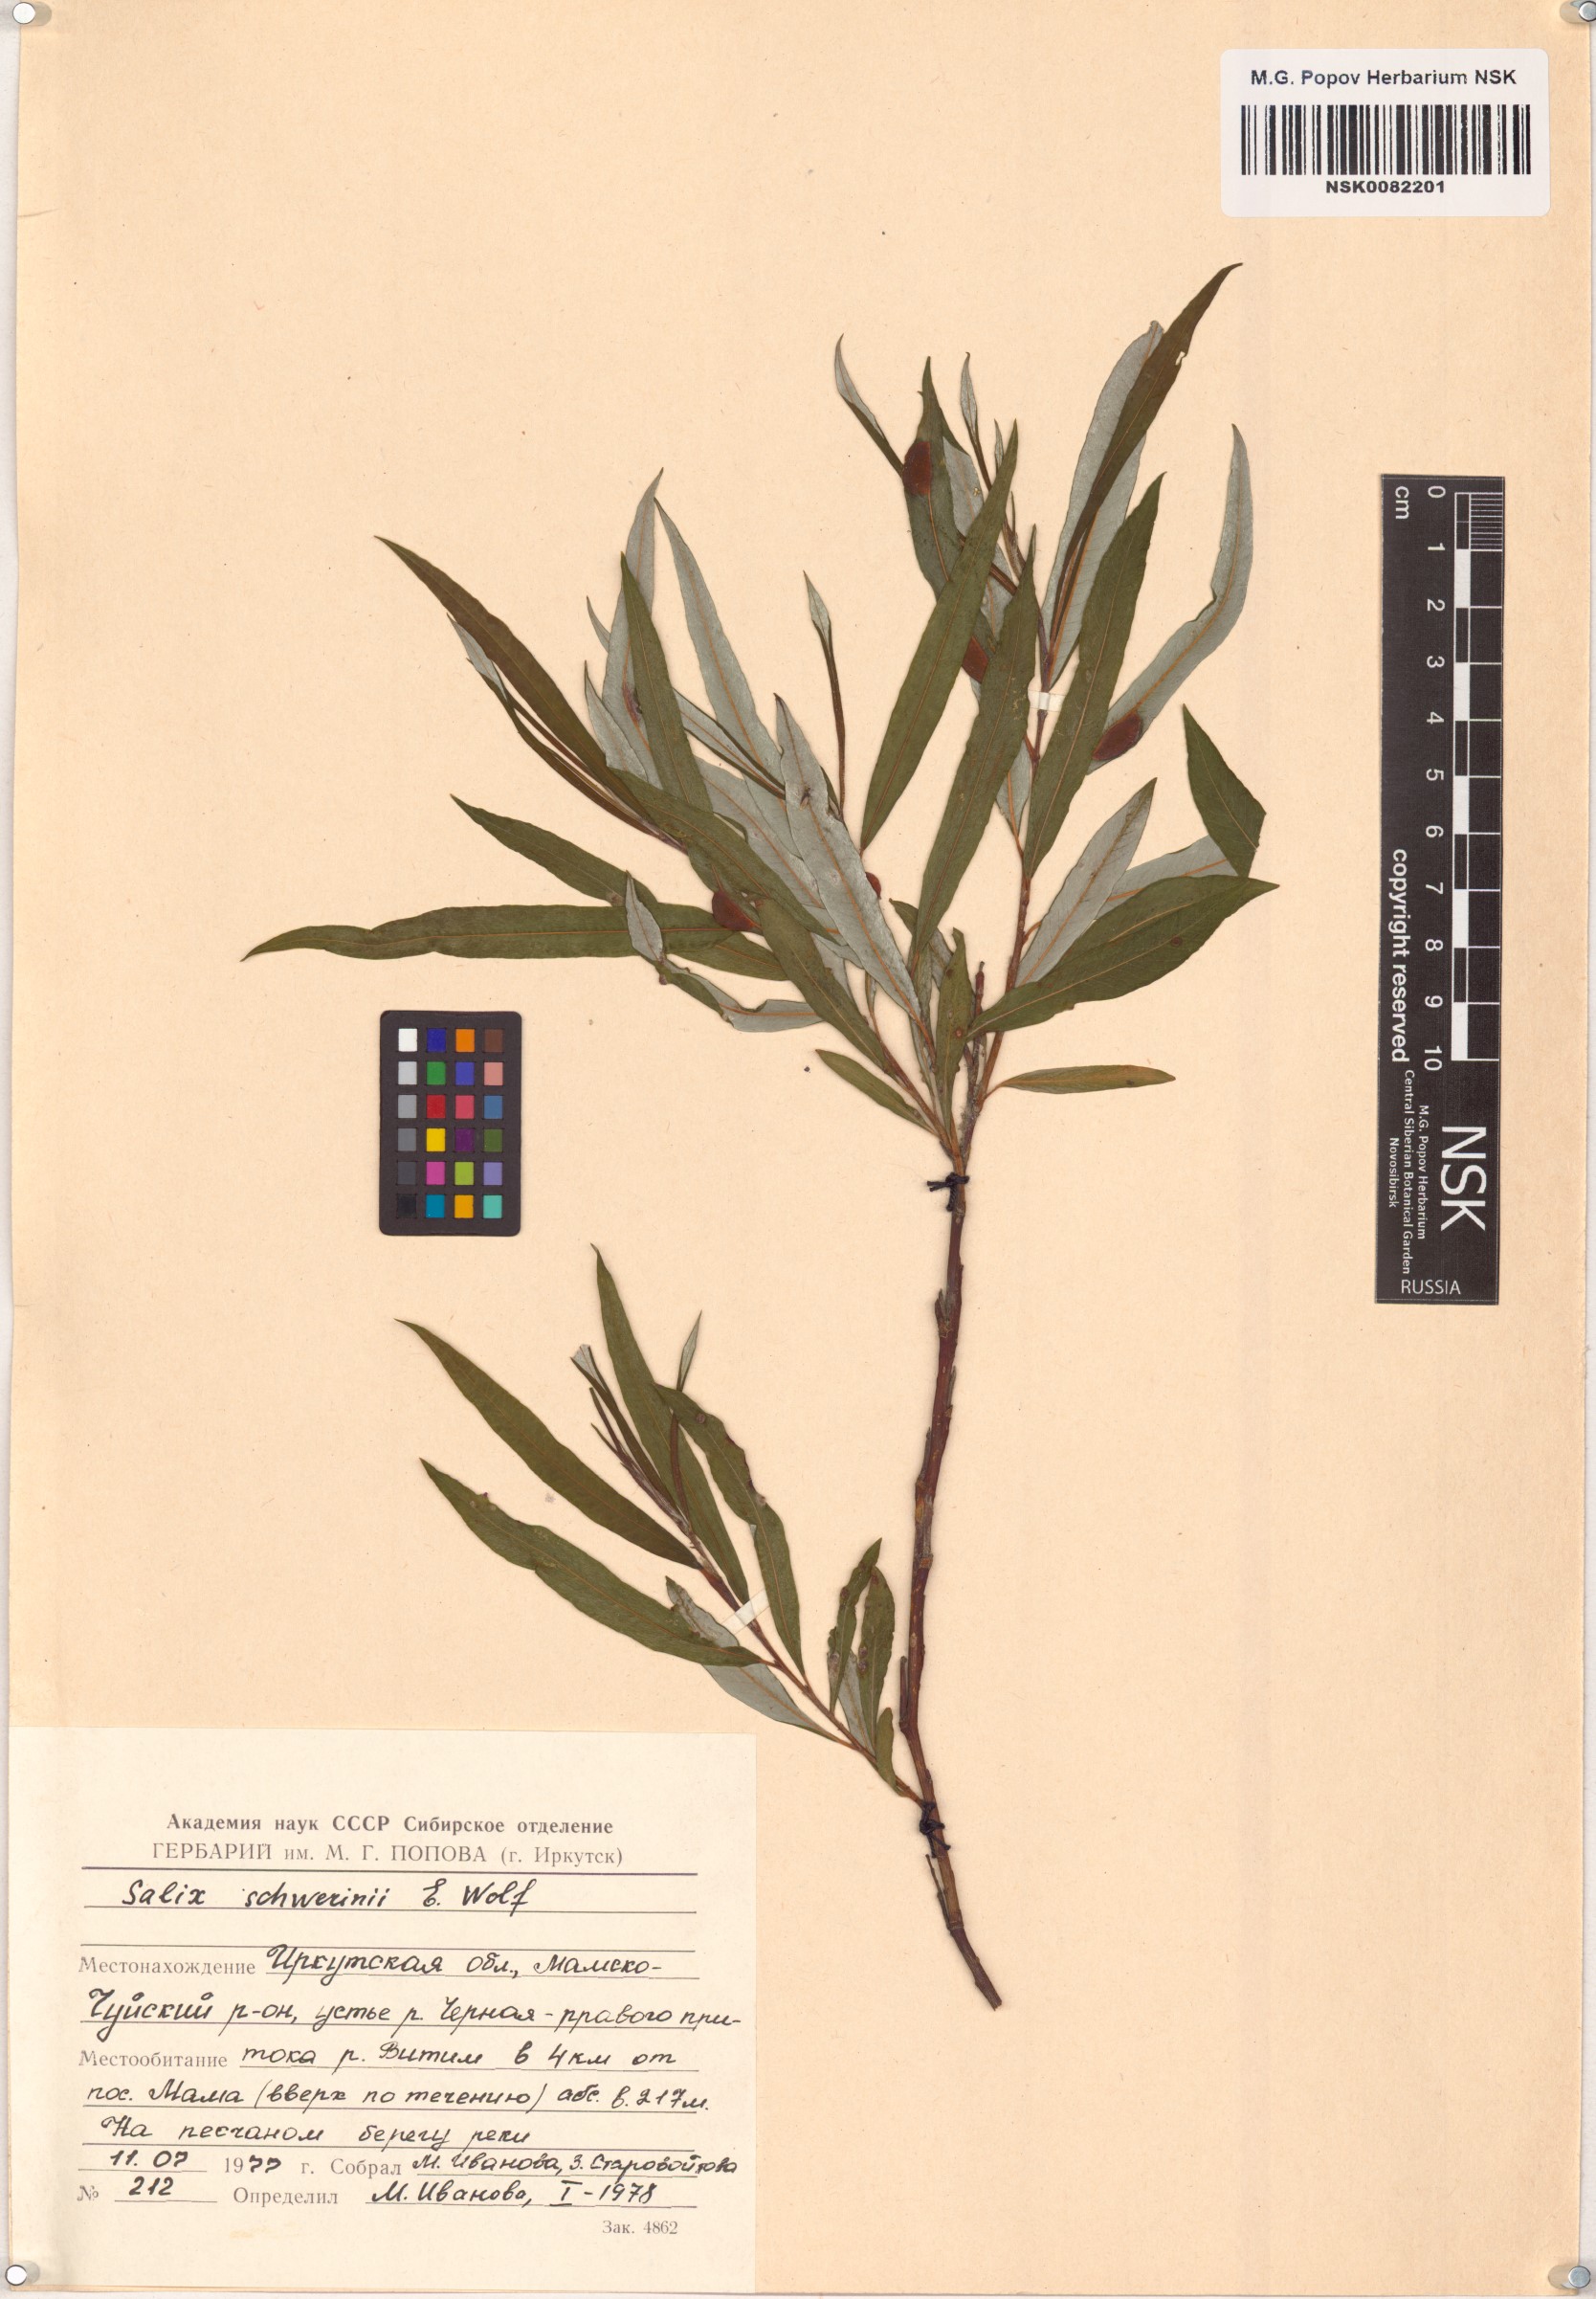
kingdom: Plantae
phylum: Tracheophyta
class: Magnoliopsida
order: Malpighiales
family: Salicaceae
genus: Salix
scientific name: Salix schwerinii
